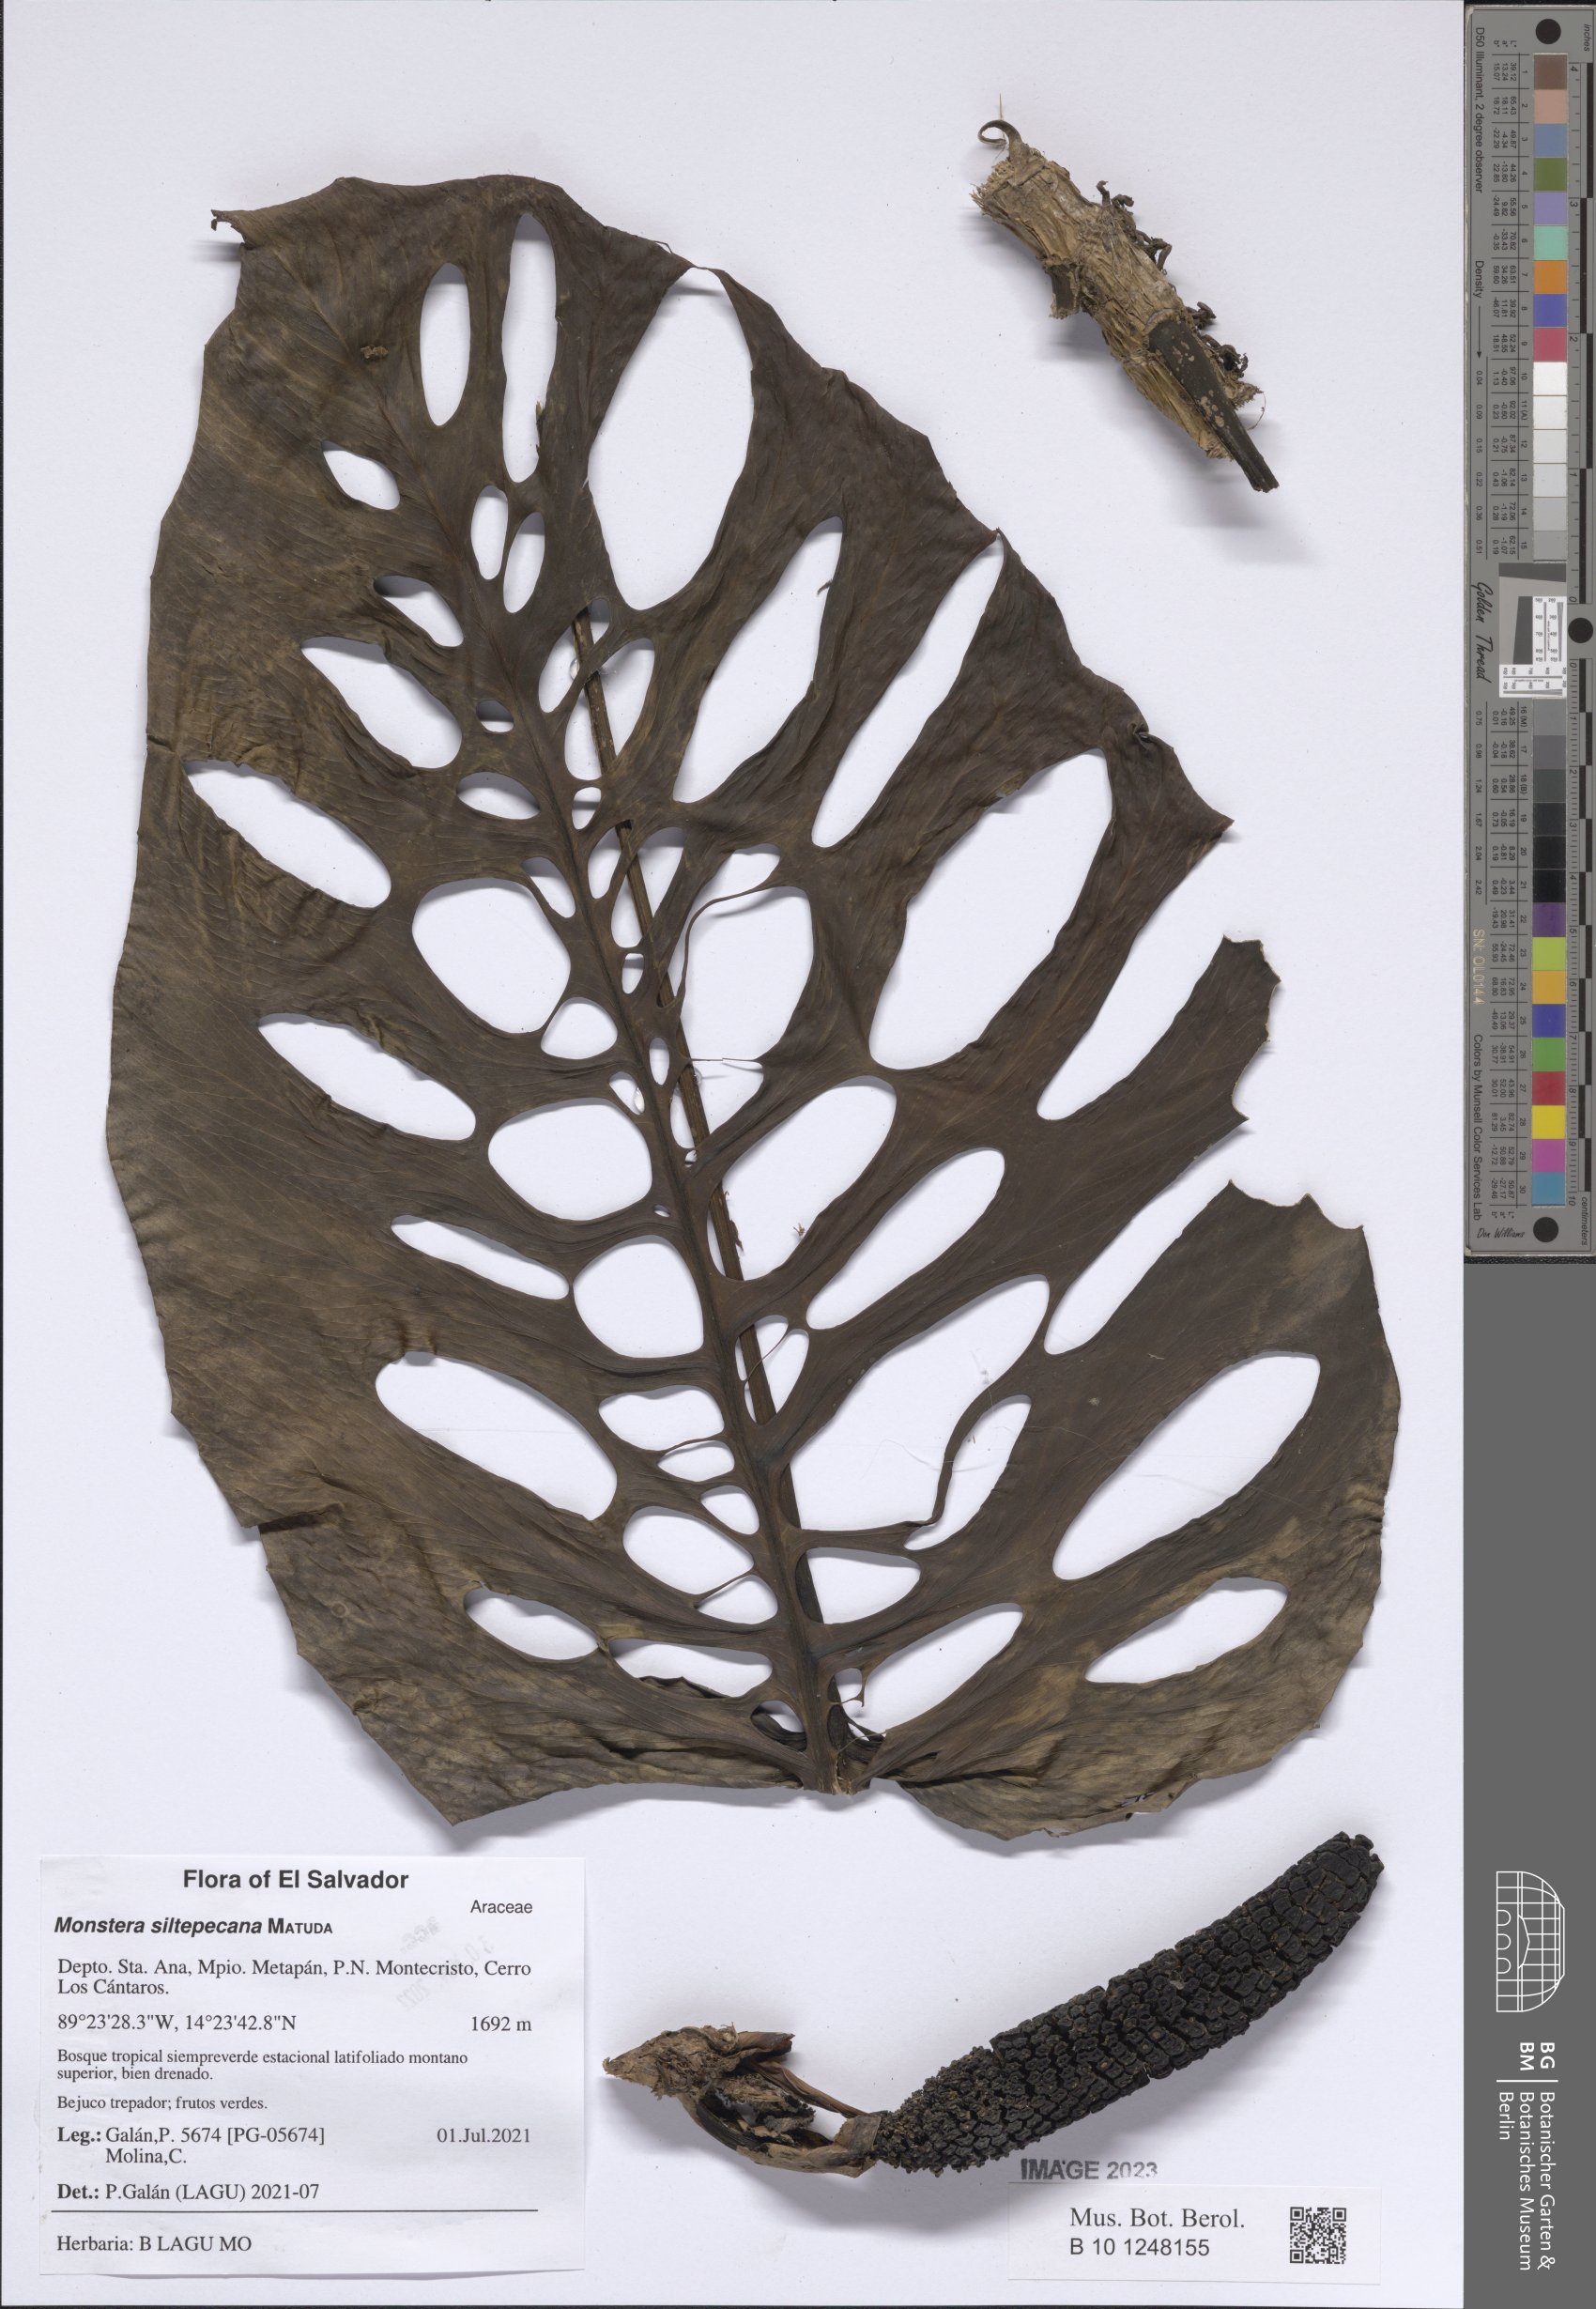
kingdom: Plantae
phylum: Tracheophyta
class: Liliopsida
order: Alismatales
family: Araceae
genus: Monstera
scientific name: Monstera siltepecana
